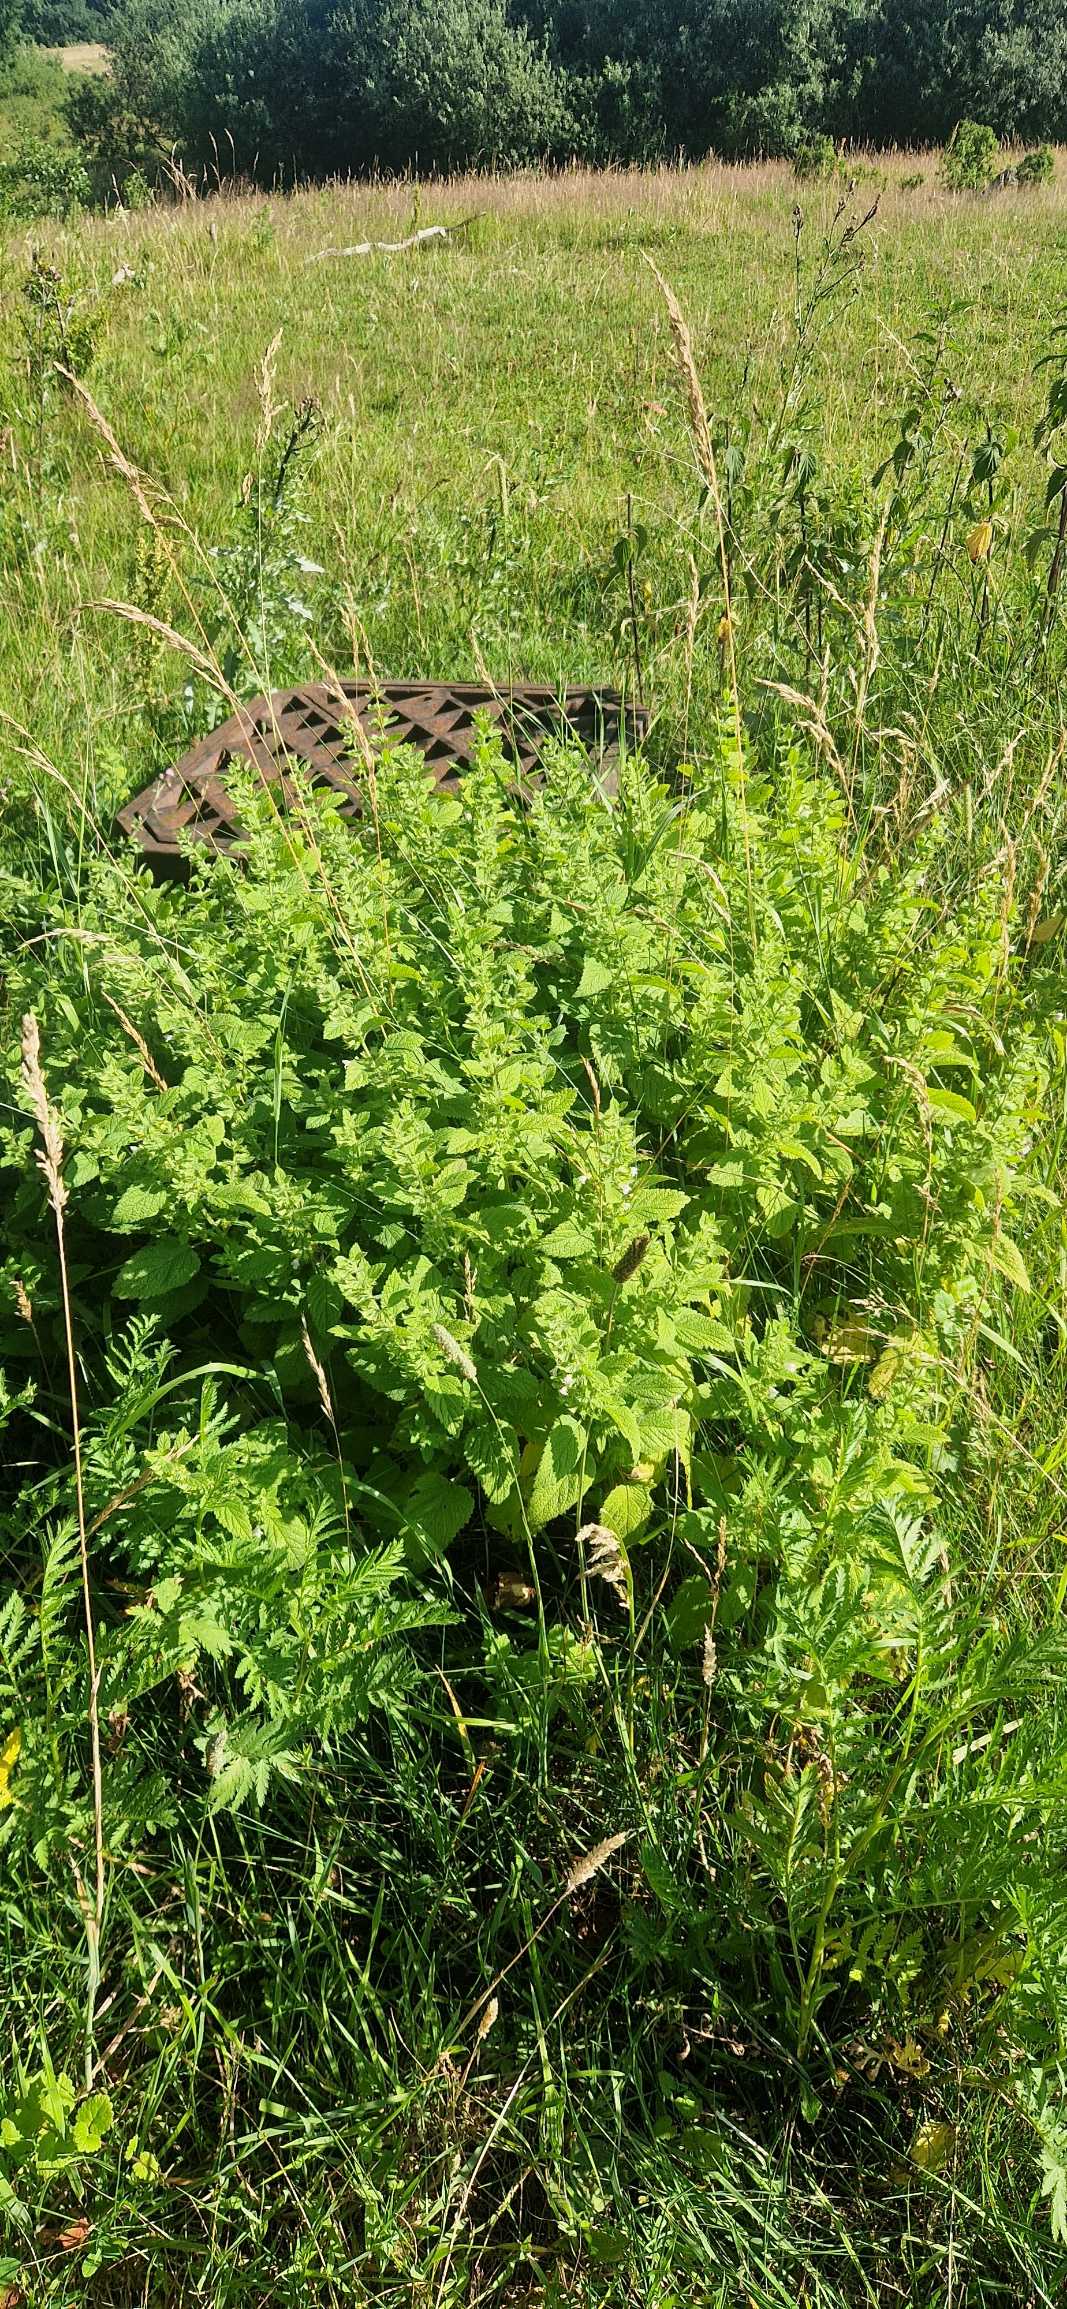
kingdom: Plantae
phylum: Tracheophyta
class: Magnoliopsida
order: Lamiales
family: Lamiaceae
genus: Melissa
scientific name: Melissa officinalis
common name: Citronmelisse
